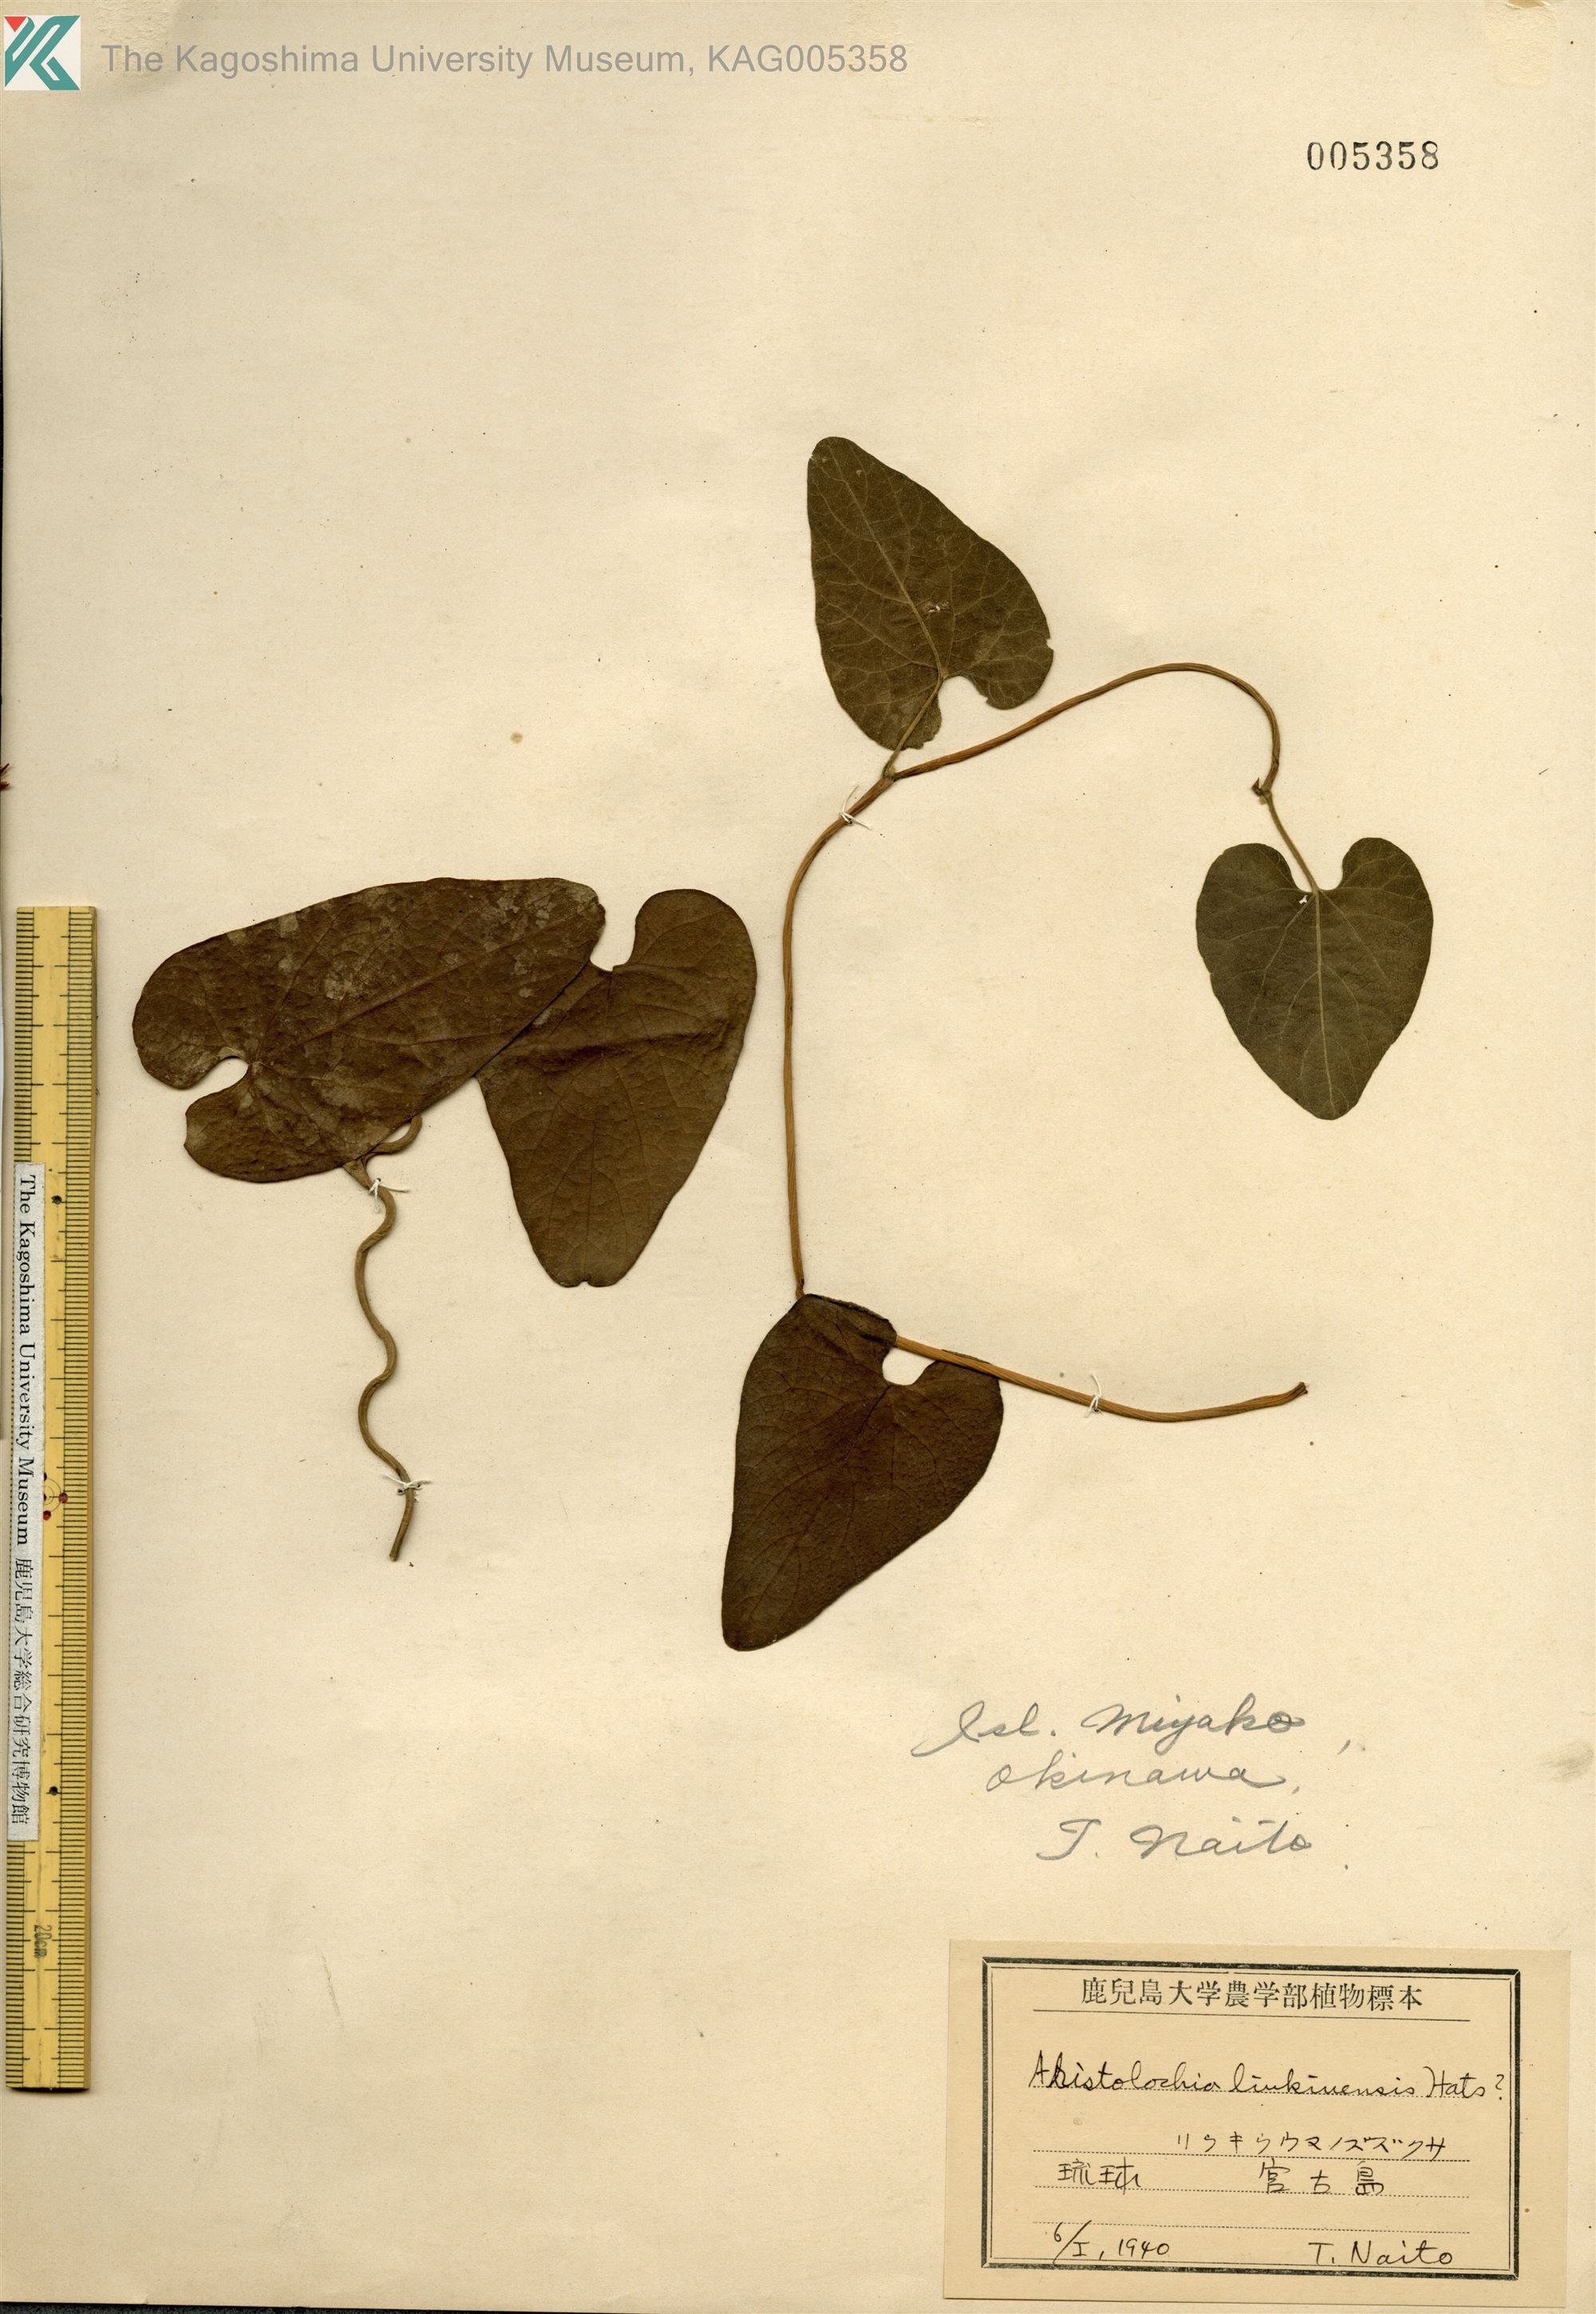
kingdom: Plantae
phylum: Tracheophyta
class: Magnoliopsida
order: Piperales
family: Aristolochiaceae
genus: Isotrema
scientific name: Isotrema liukiuense
